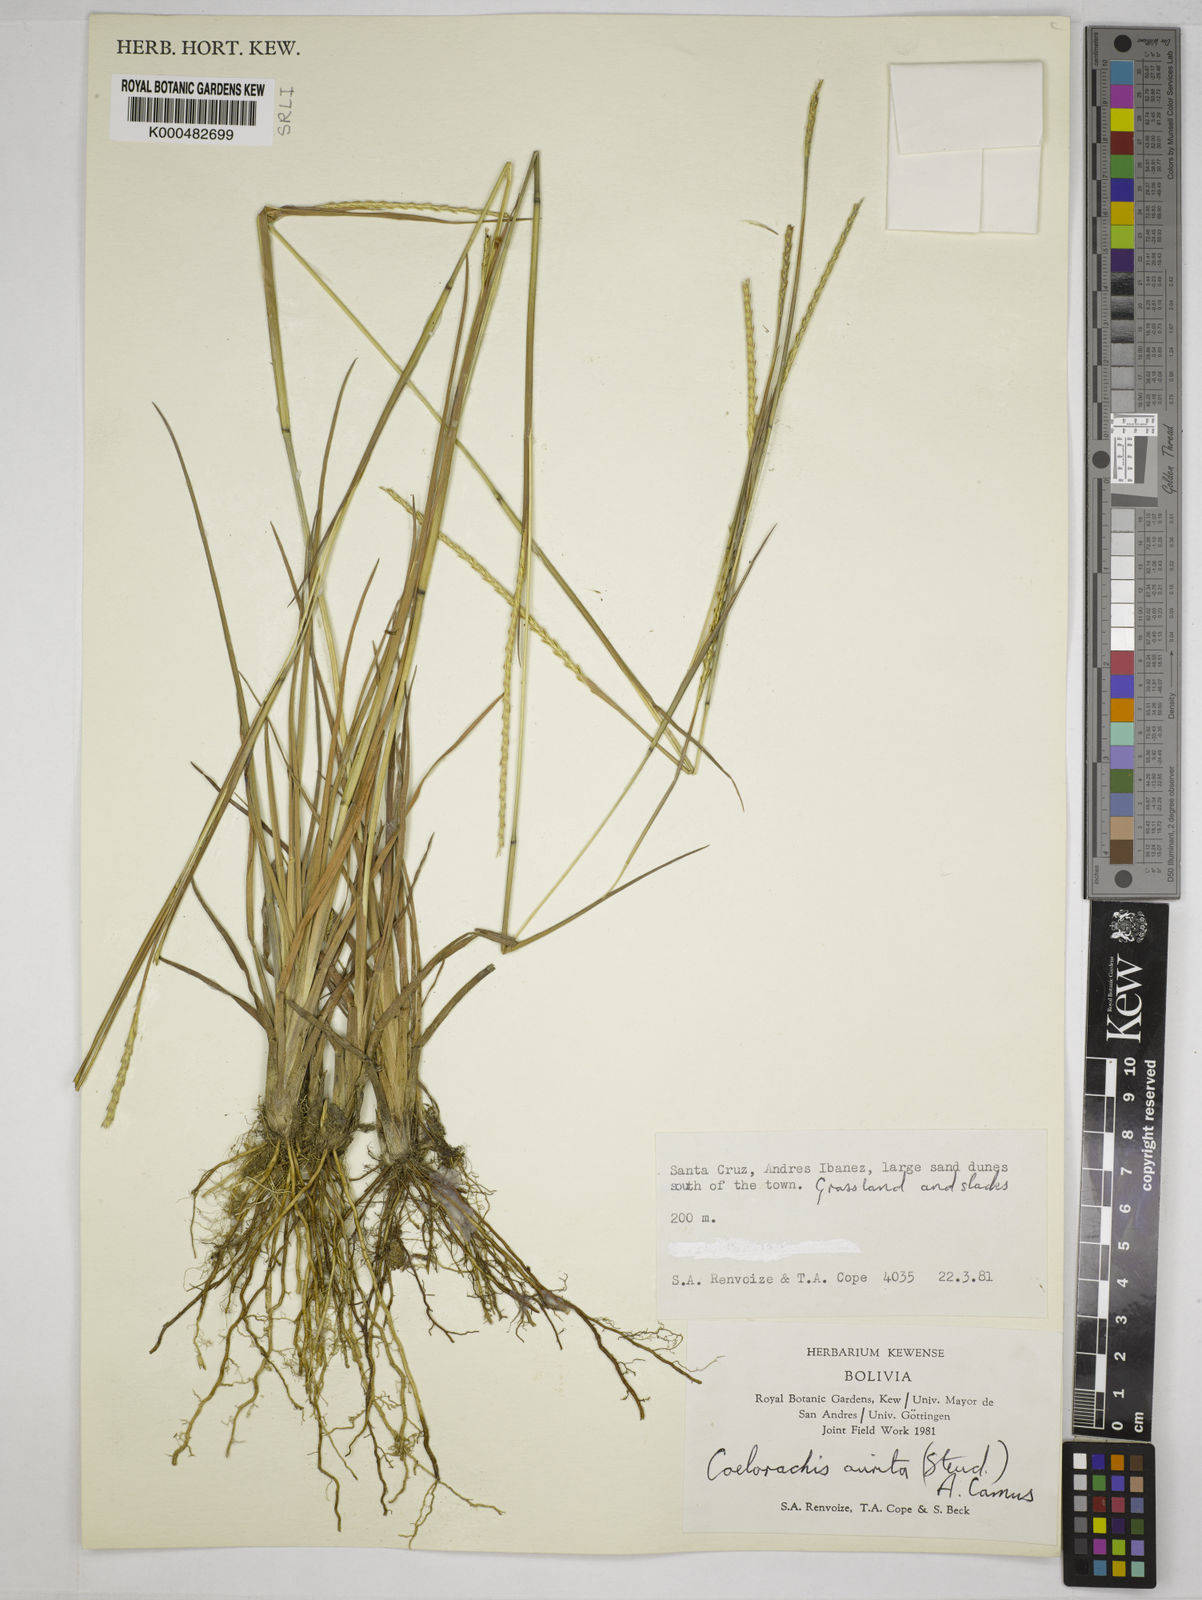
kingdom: Plantae
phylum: Tracheophyta
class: Liliopsida
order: Poales
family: Poaceae
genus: Rottboellia
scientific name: Rottboellia aurita
